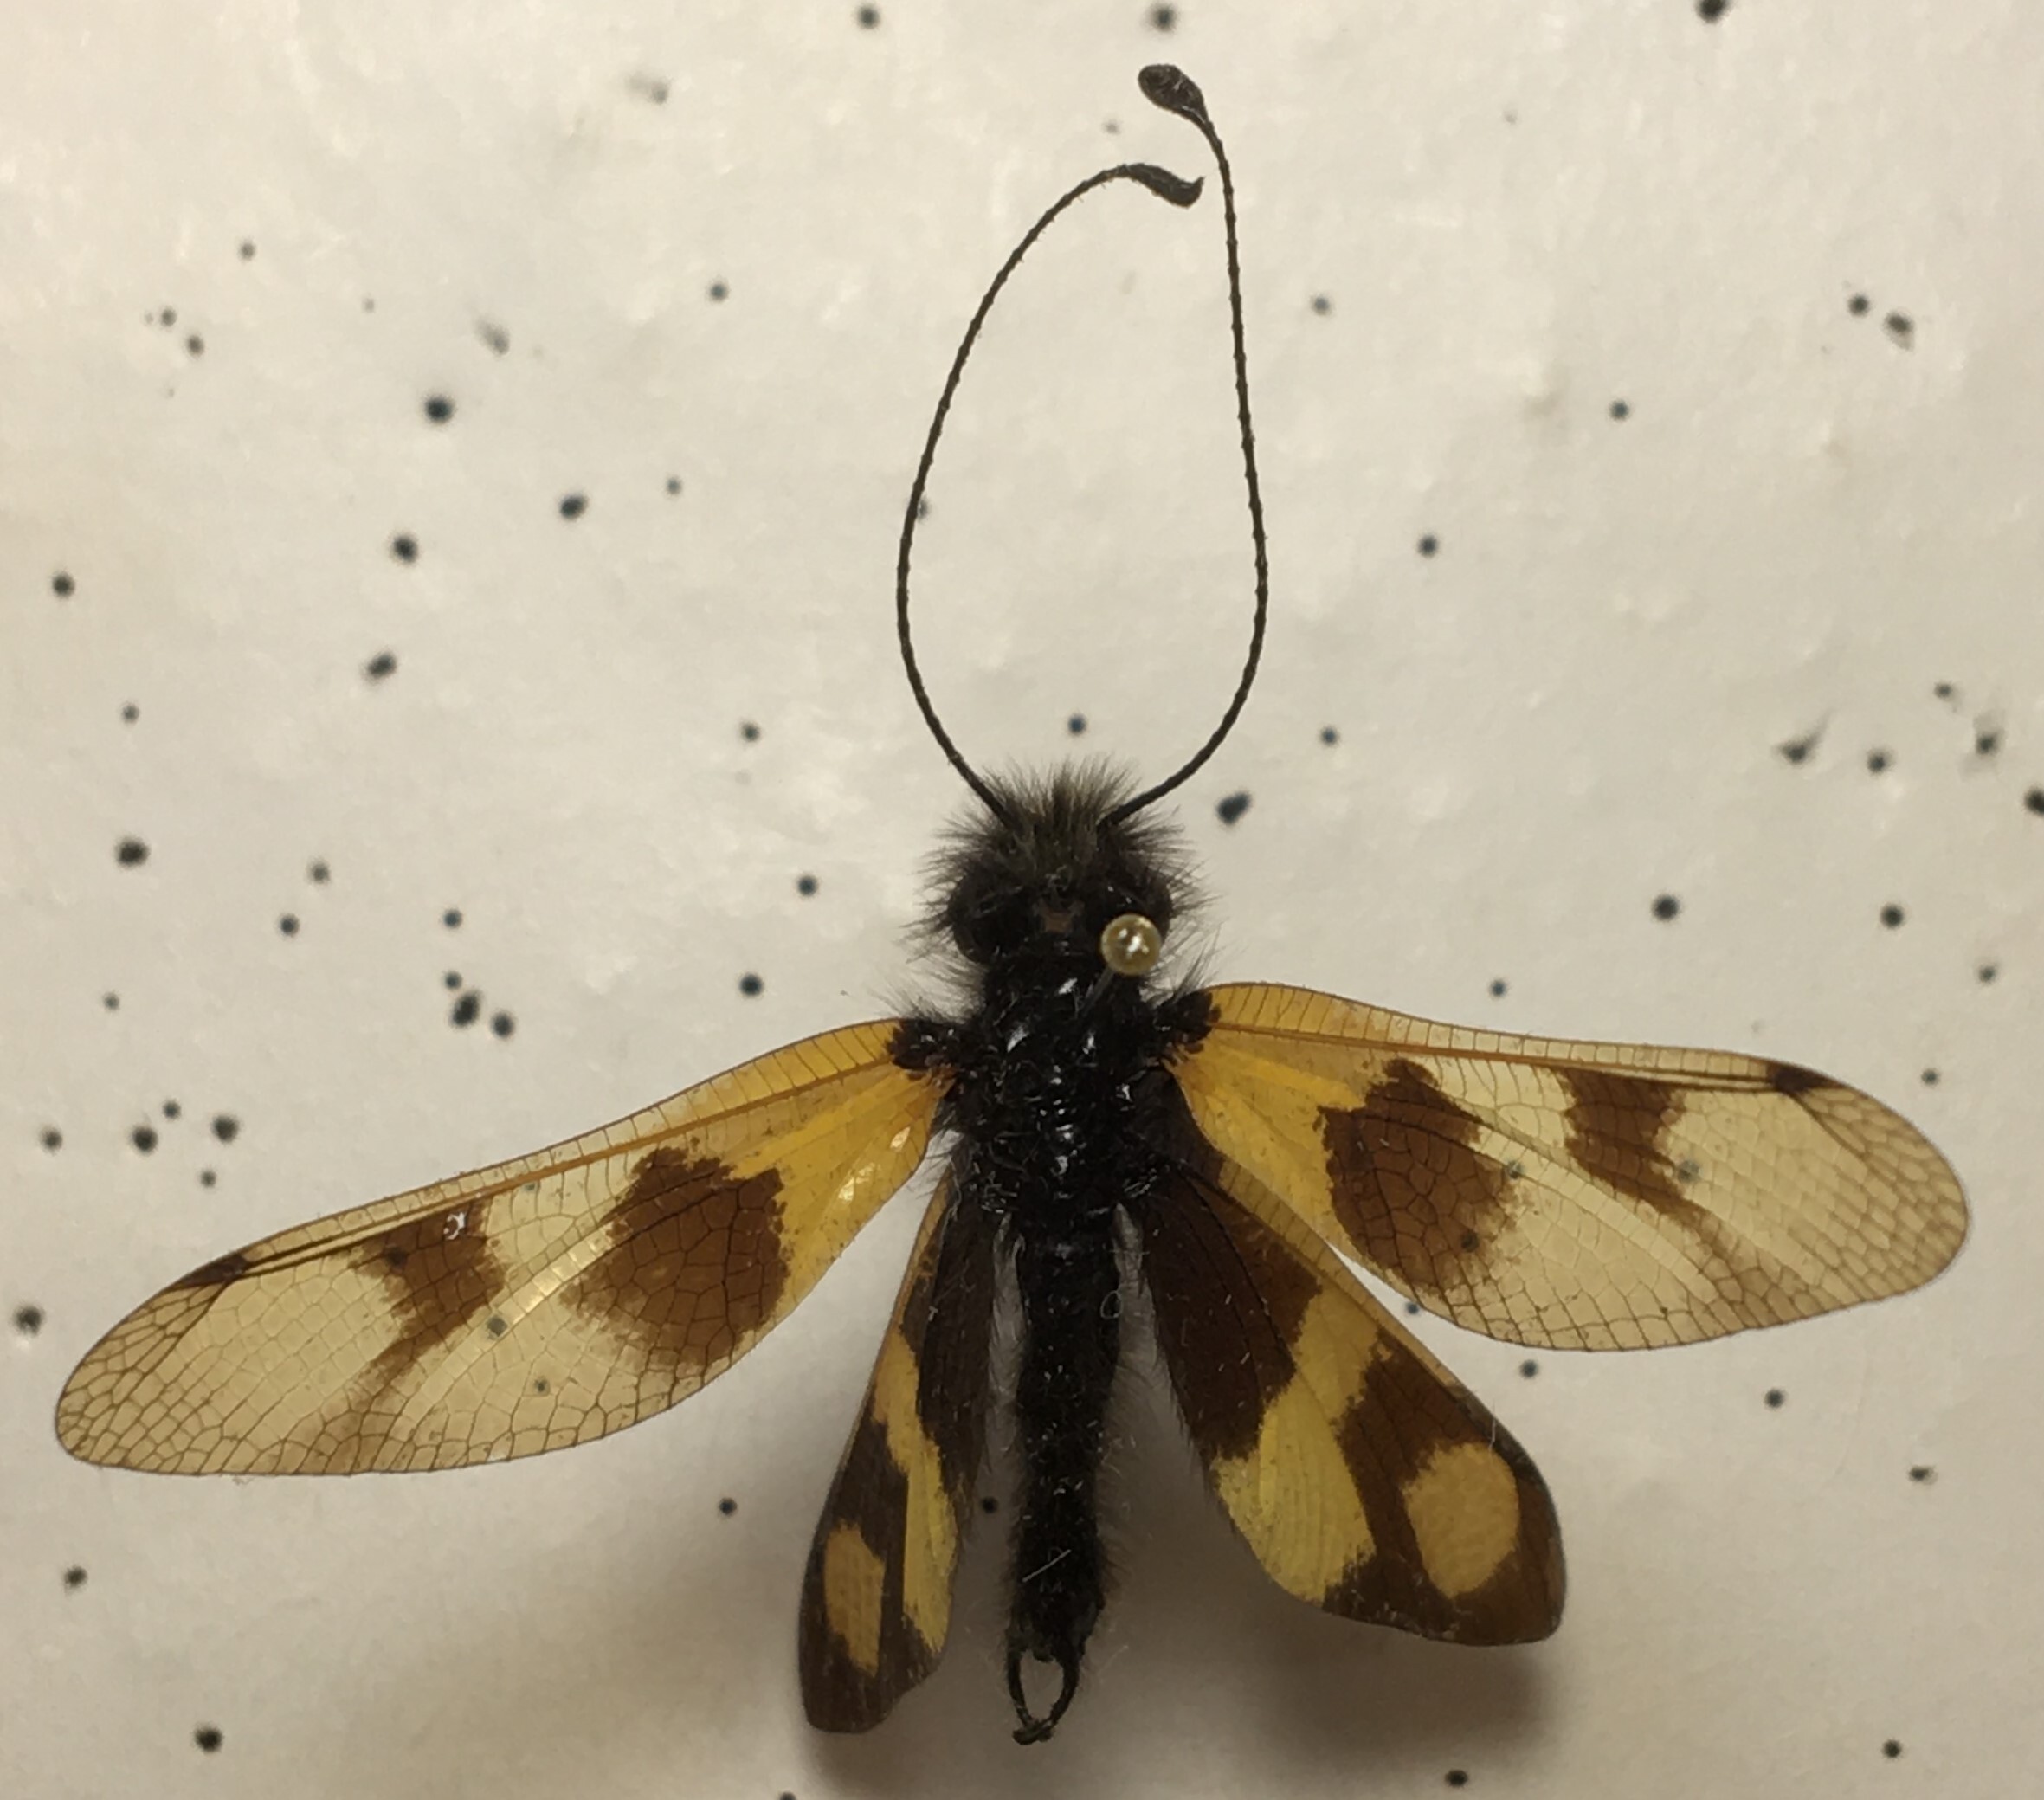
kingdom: Animalia
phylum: Arthropoda
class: Insecta
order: Neuroptera
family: Ascalaphidae
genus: Libelloides
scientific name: Libelloides macaronius
